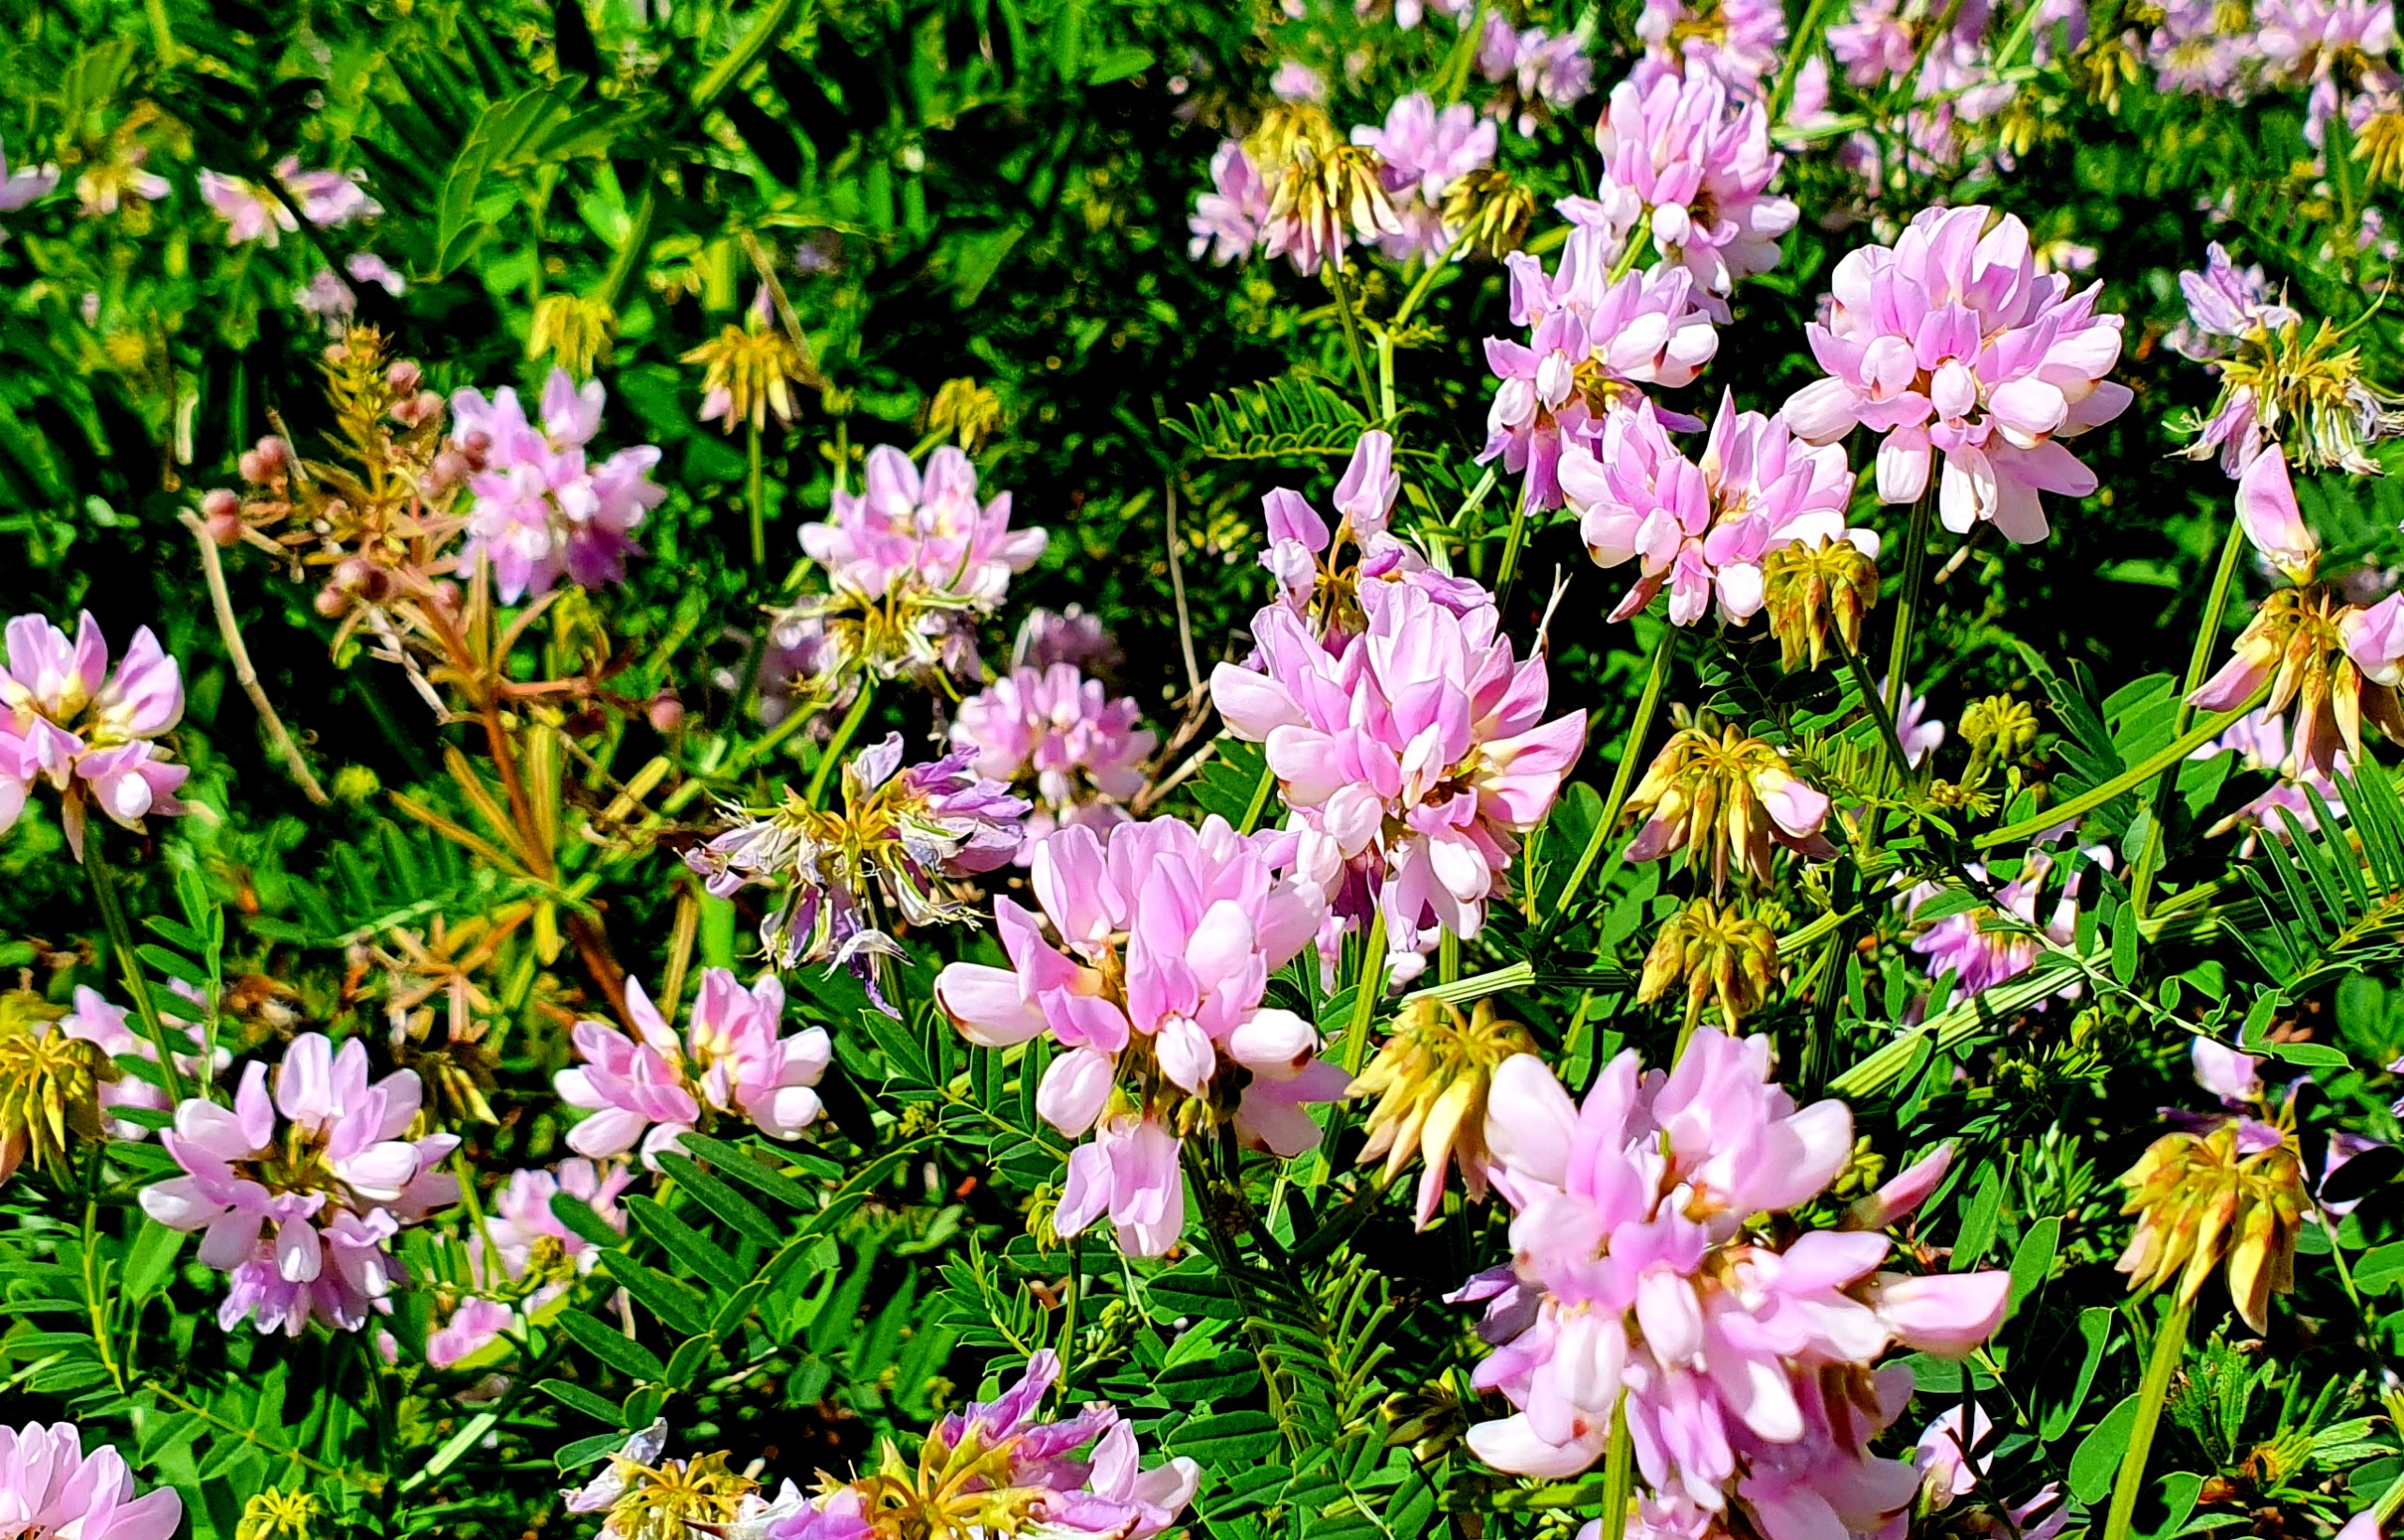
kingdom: Plantae
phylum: Tracheophyta
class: Magnoliopsida
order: Fabales
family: Fabaceae
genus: Coronilla
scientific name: Coronilla varia
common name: Giftig kronvikke
